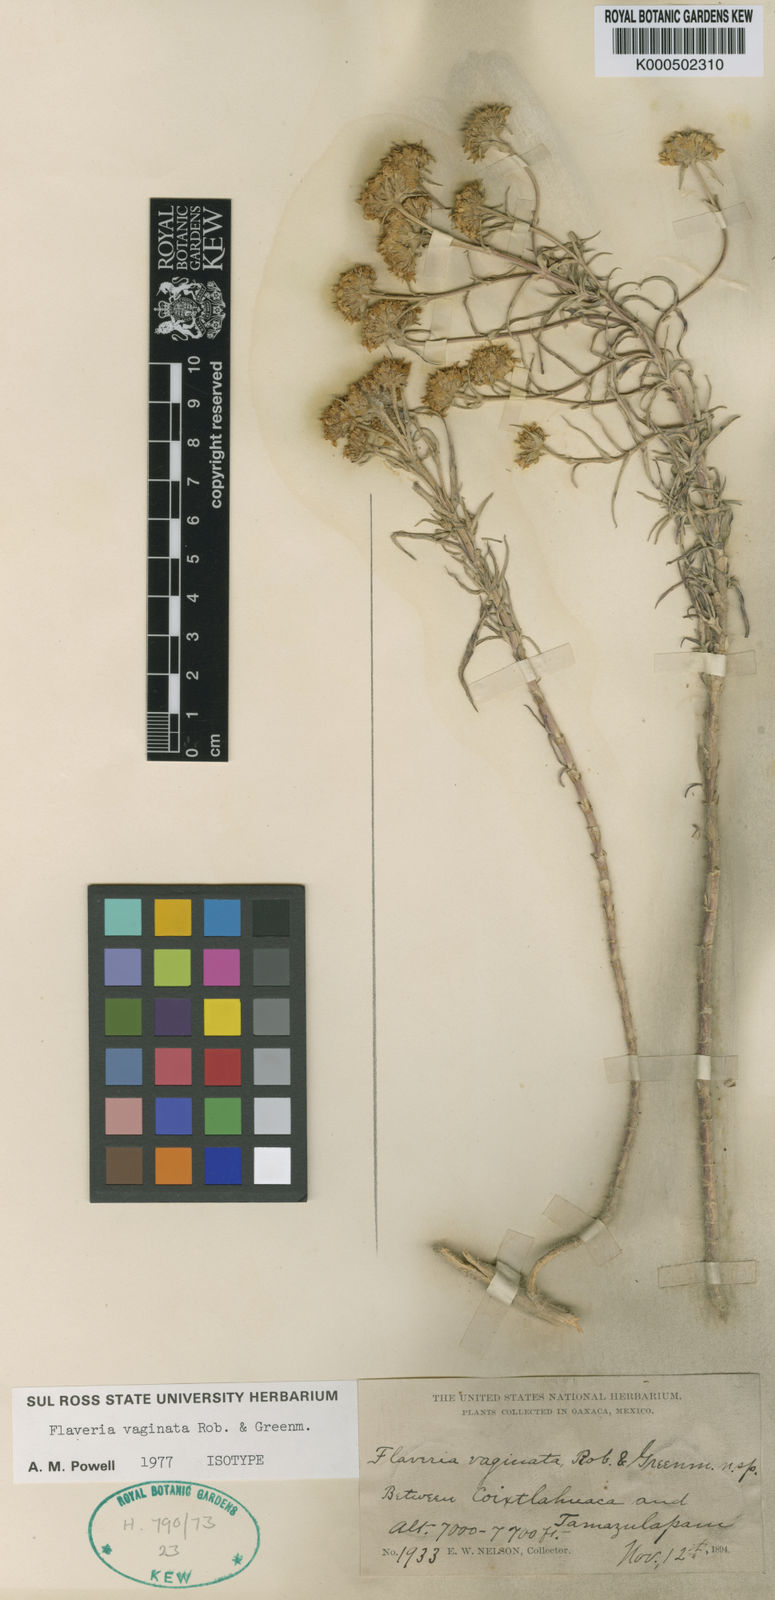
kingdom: Plantae
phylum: Tracheophyta
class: Magnoliopsida
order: Asterales
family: Asteraceae
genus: Flaveria
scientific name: Flaveria vaginata
